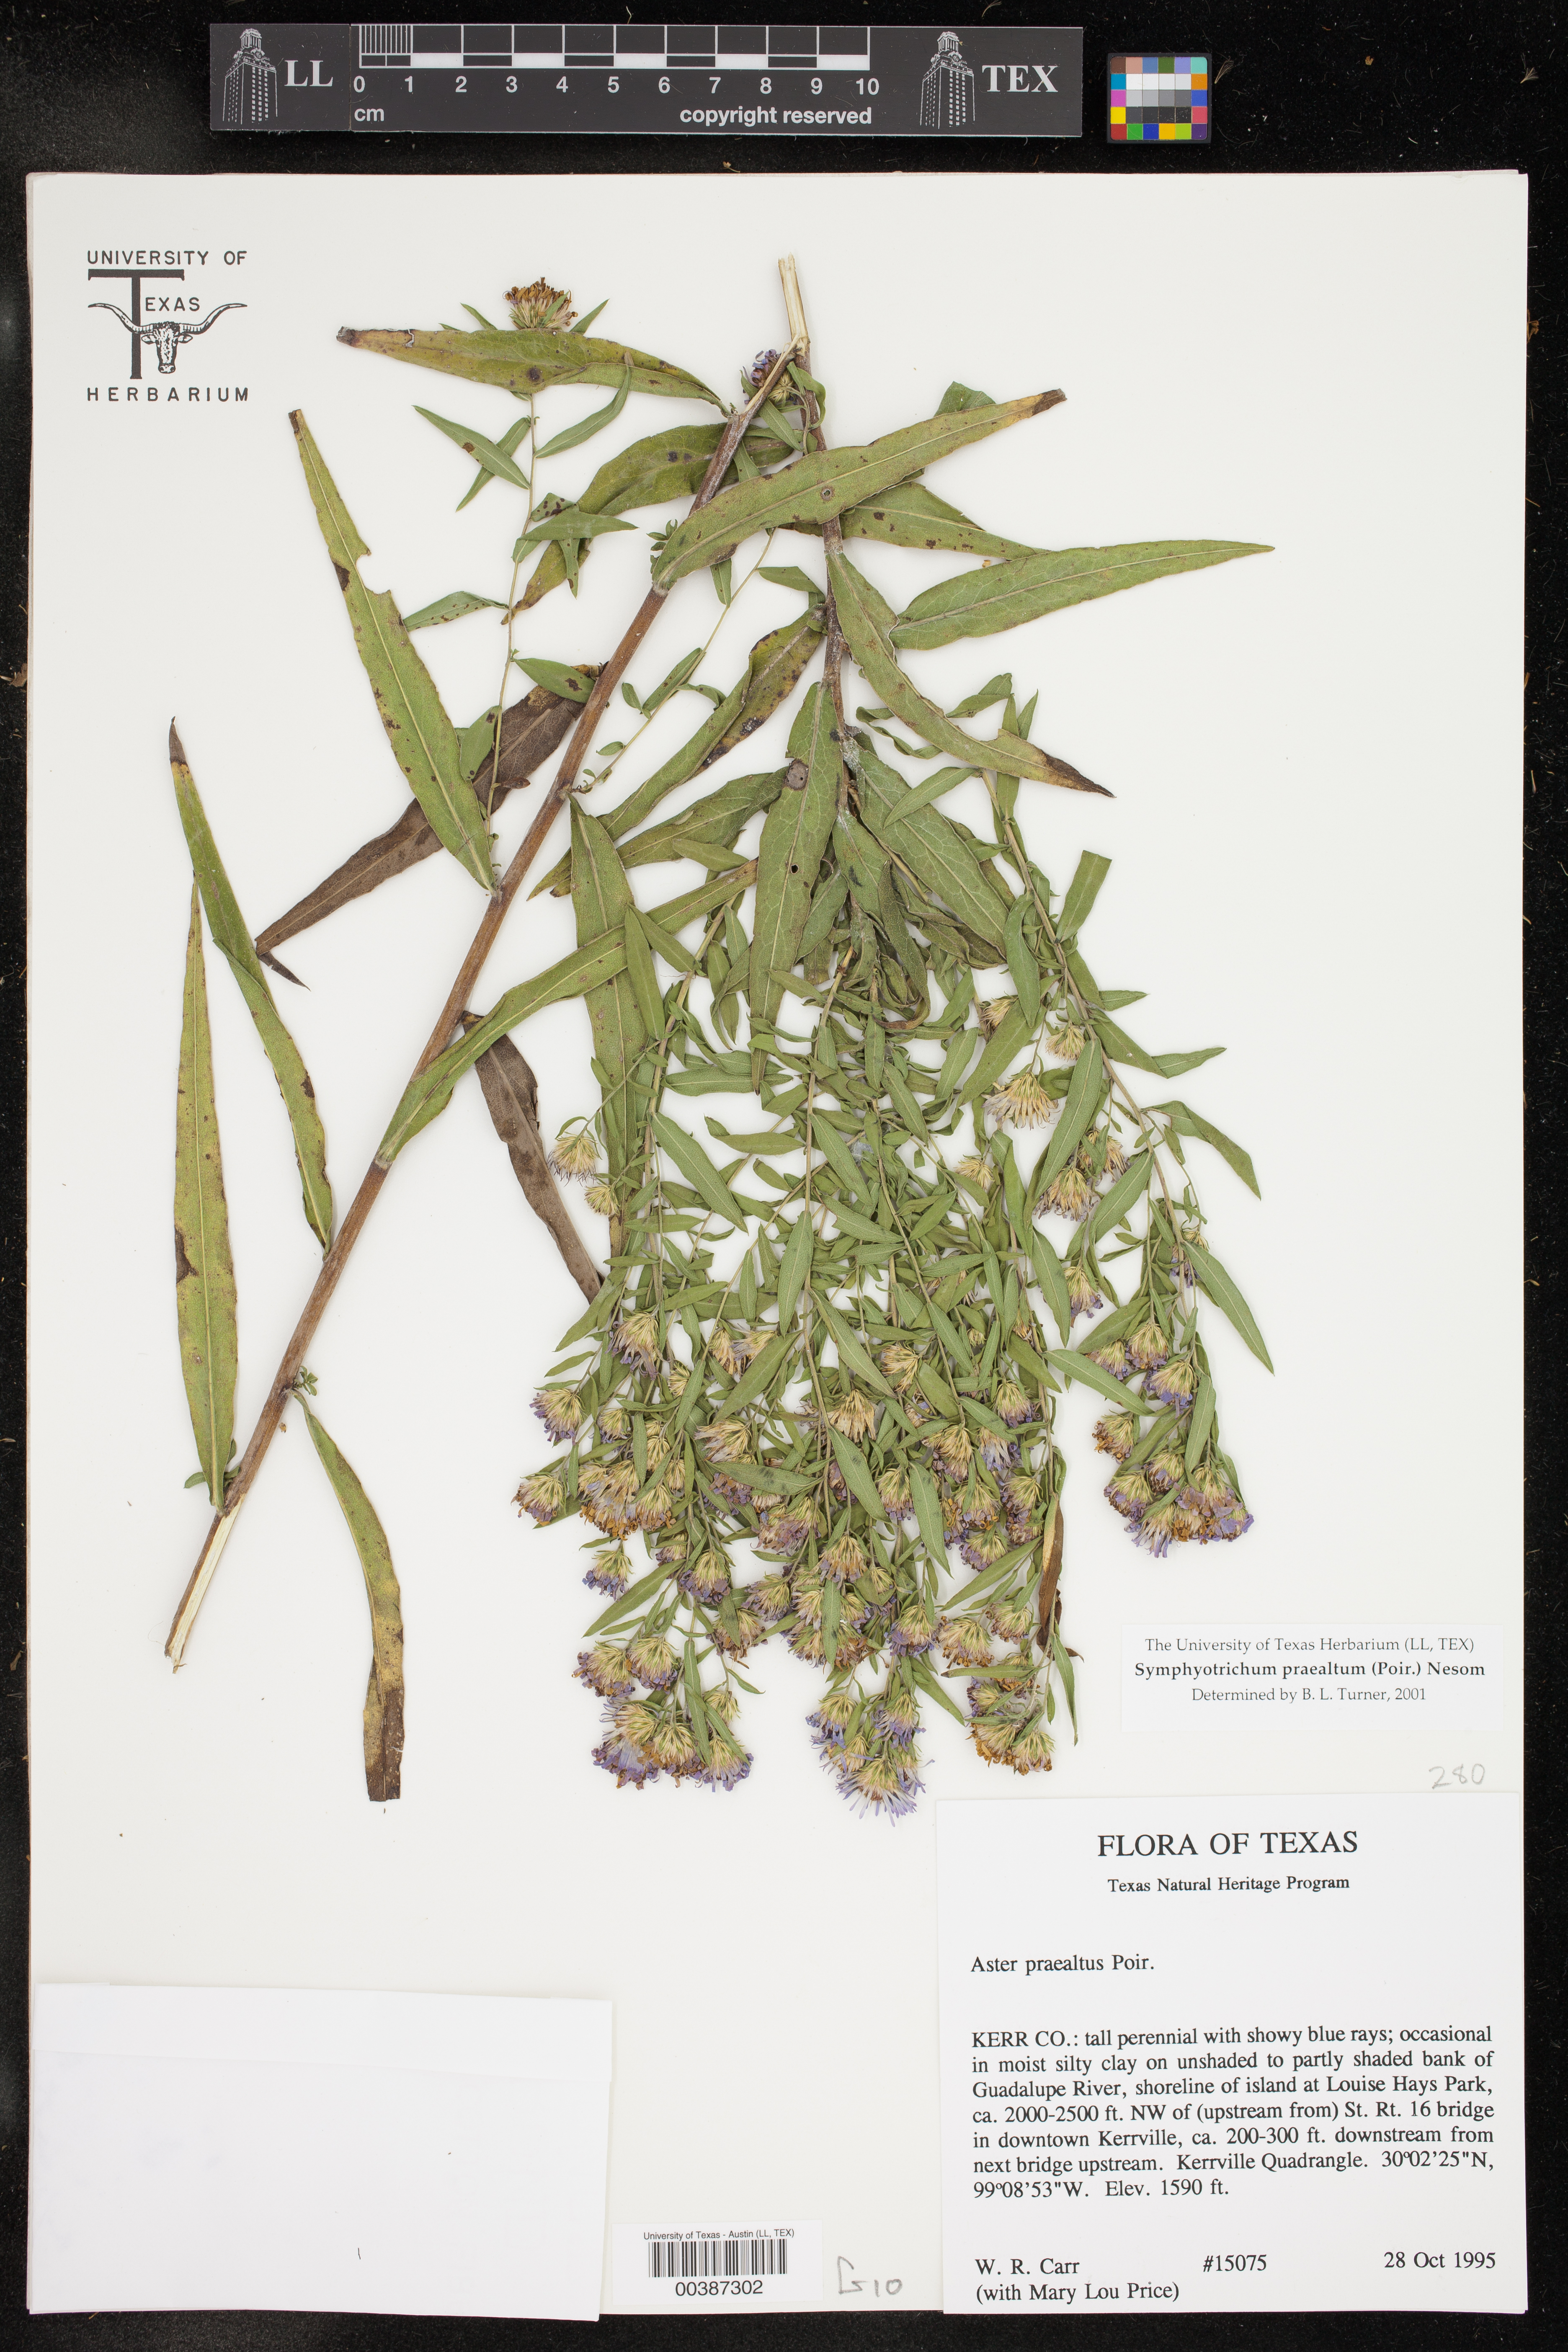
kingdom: Plantae
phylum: Tracheophyta
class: Magnoliopsida
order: Asterales
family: Asteraceae
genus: Symphyotrichum
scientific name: Symphyotrichum praealtum
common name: Willow aster
